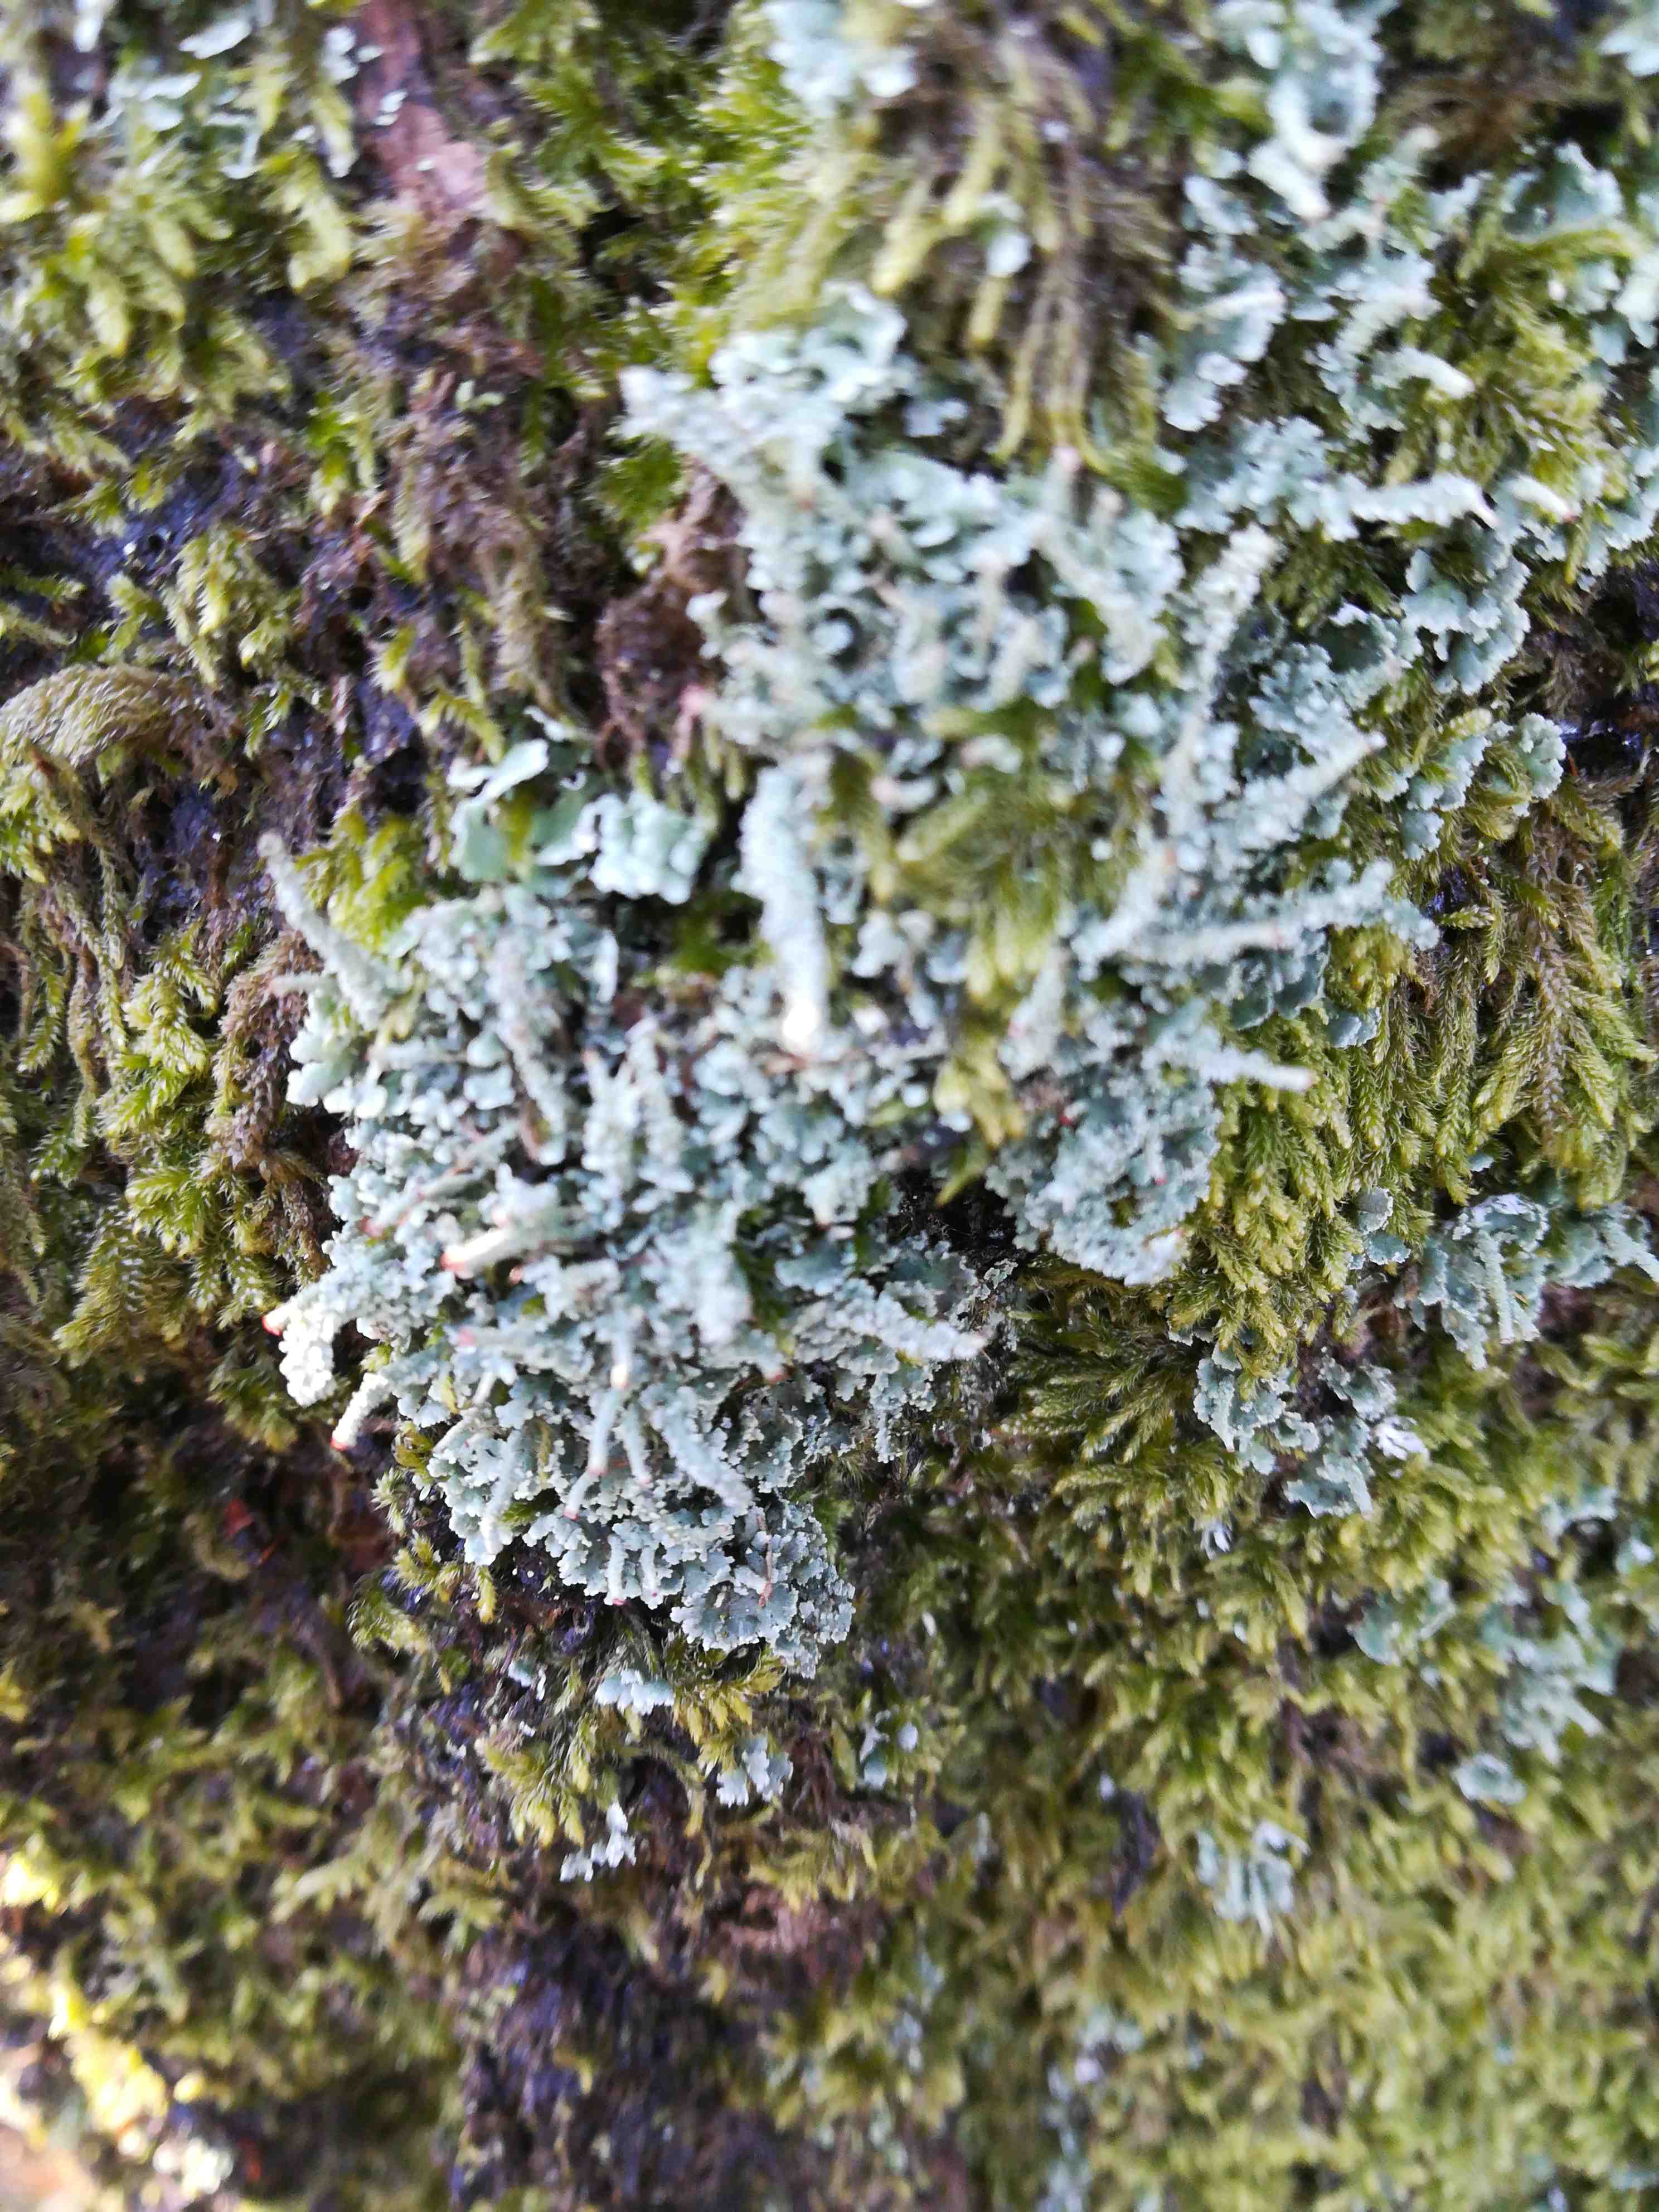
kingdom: Fungi
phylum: Ascomycota
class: Lecanoromycetes
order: Lecanorales
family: Cladoniaceae
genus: Cladonia
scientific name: Cladonia
